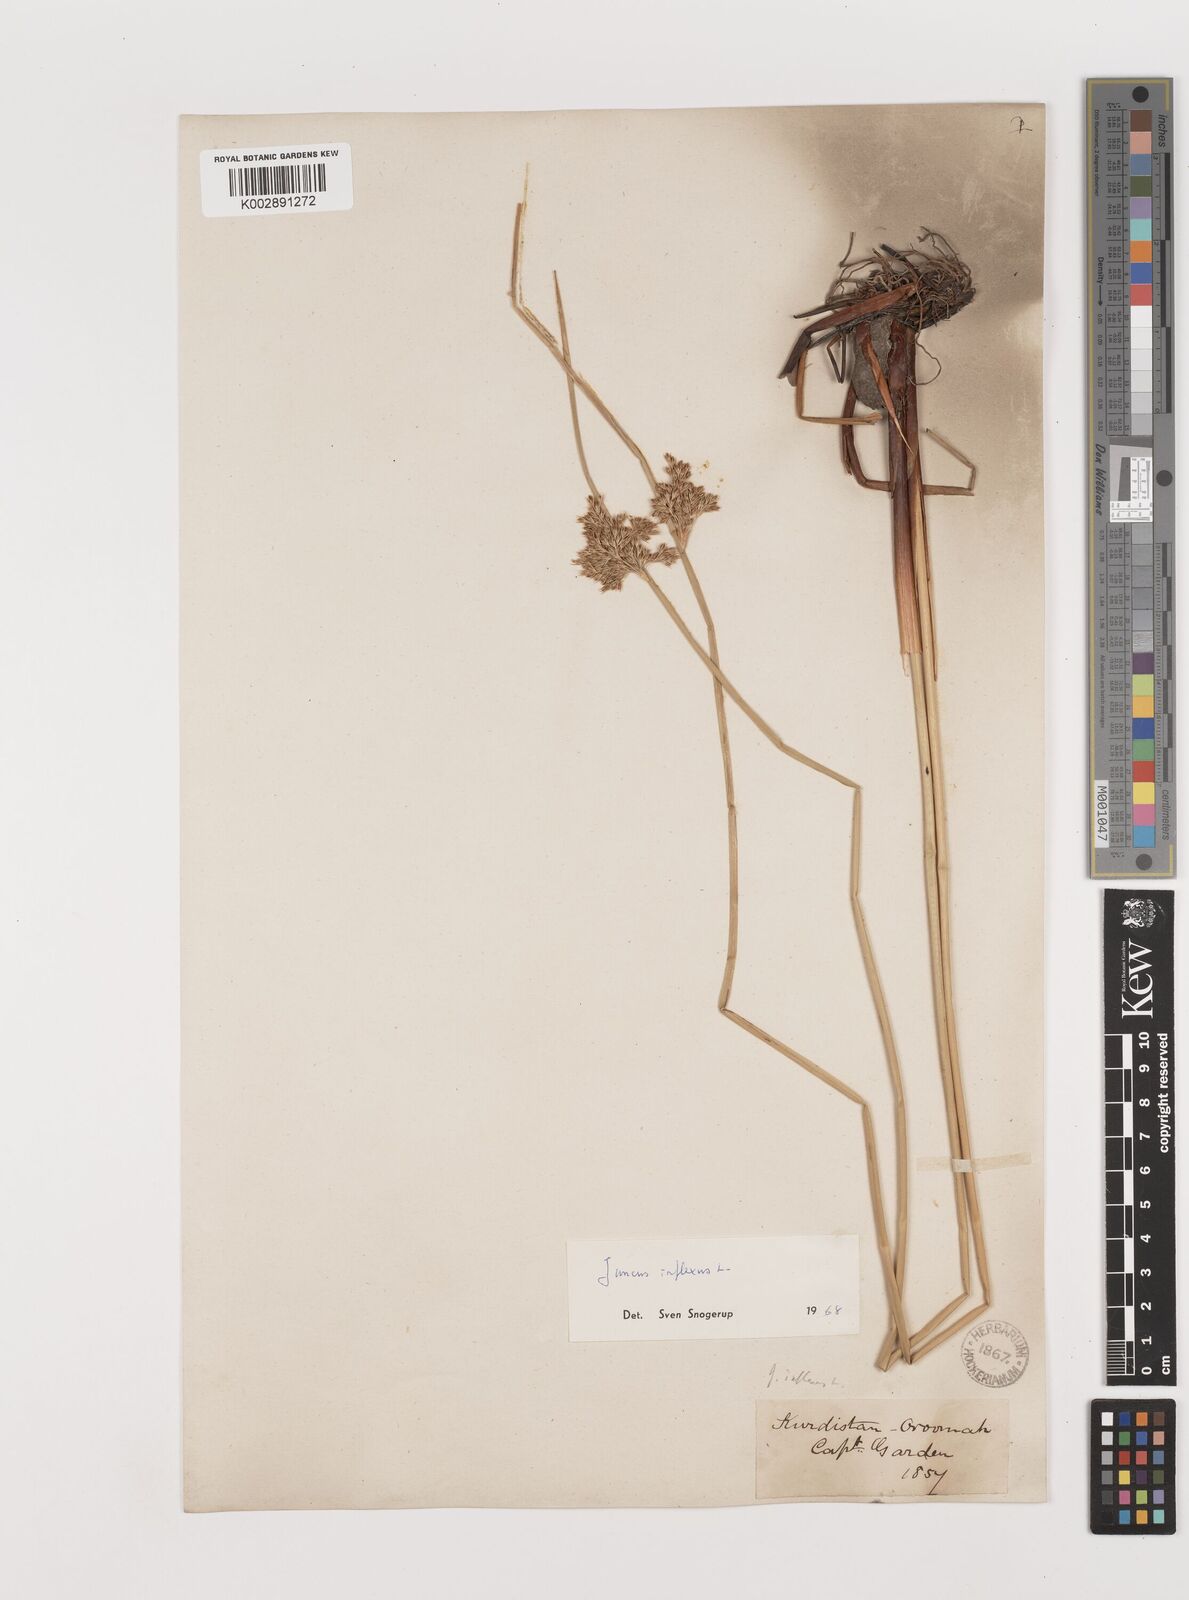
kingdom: Plantae
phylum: Tracheophyta
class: Liliopsida
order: Poales
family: Juncaceae
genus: Juncus
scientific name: Juncus inflexus
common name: Hard rush
